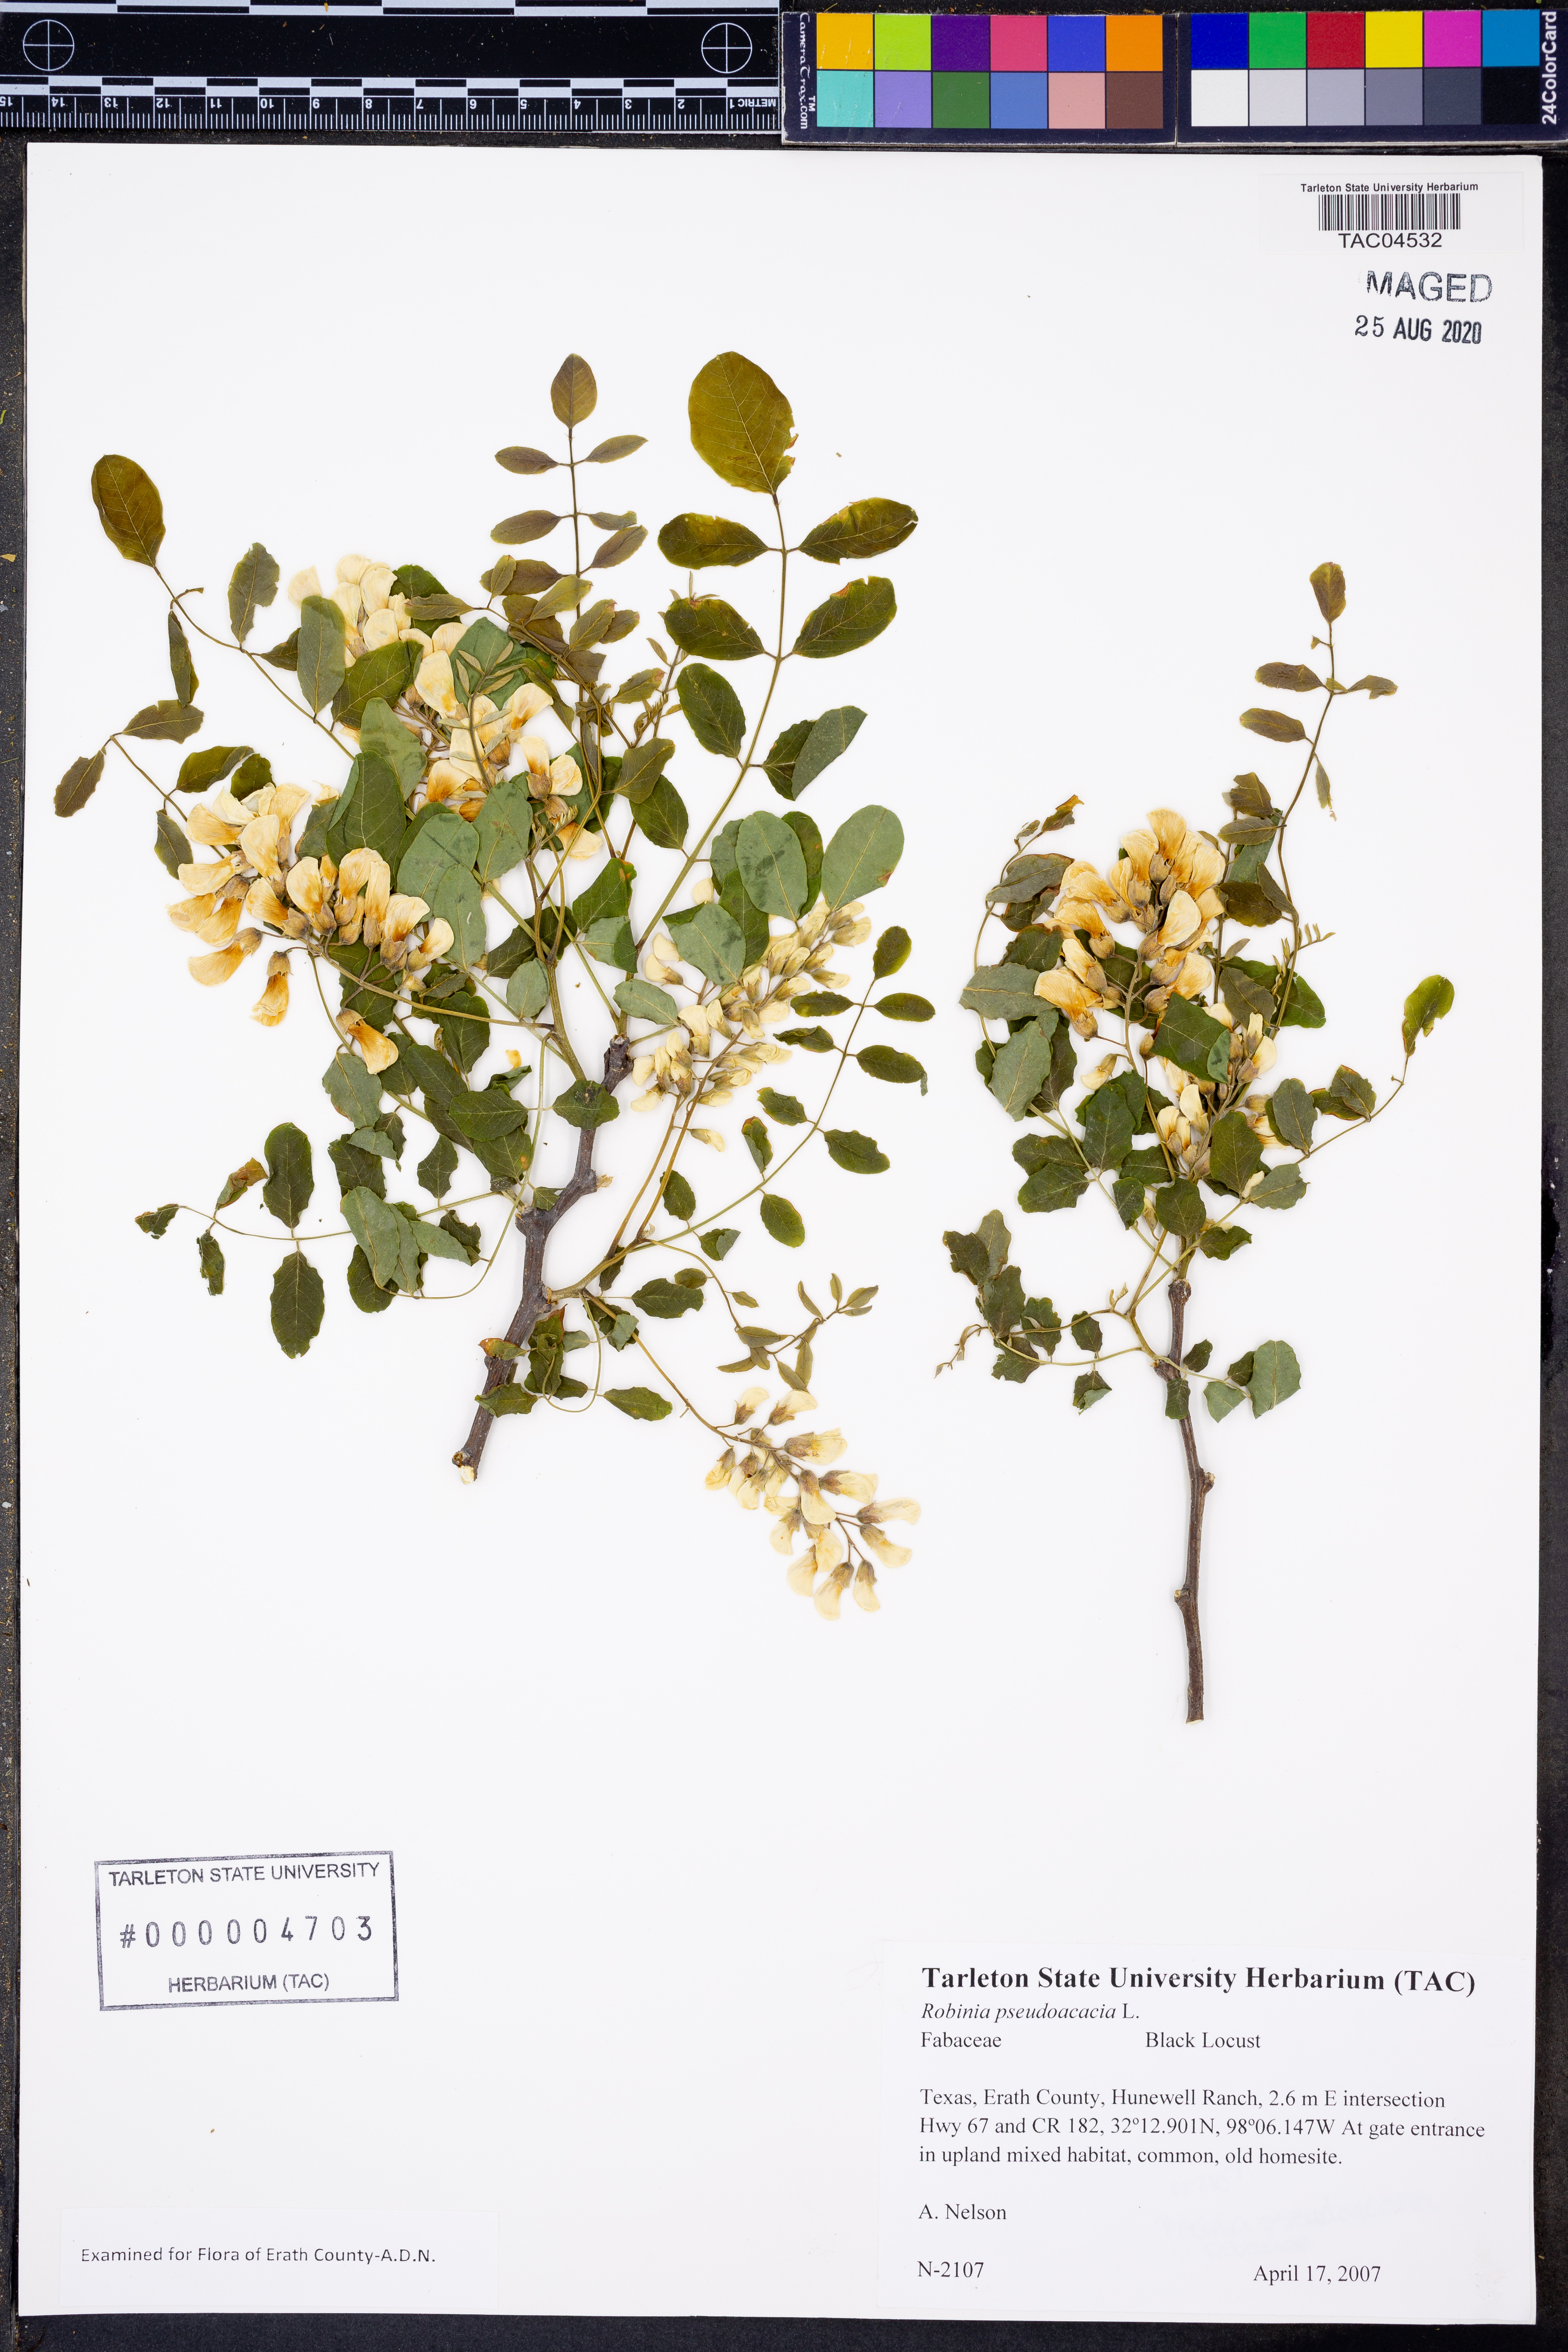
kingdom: Plantae
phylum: Tracheophyta
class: Magnoliopsida
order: Fabales
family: Fabaceae
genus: Robinia
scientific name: Robinia pseudoacacia
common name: Black locust
